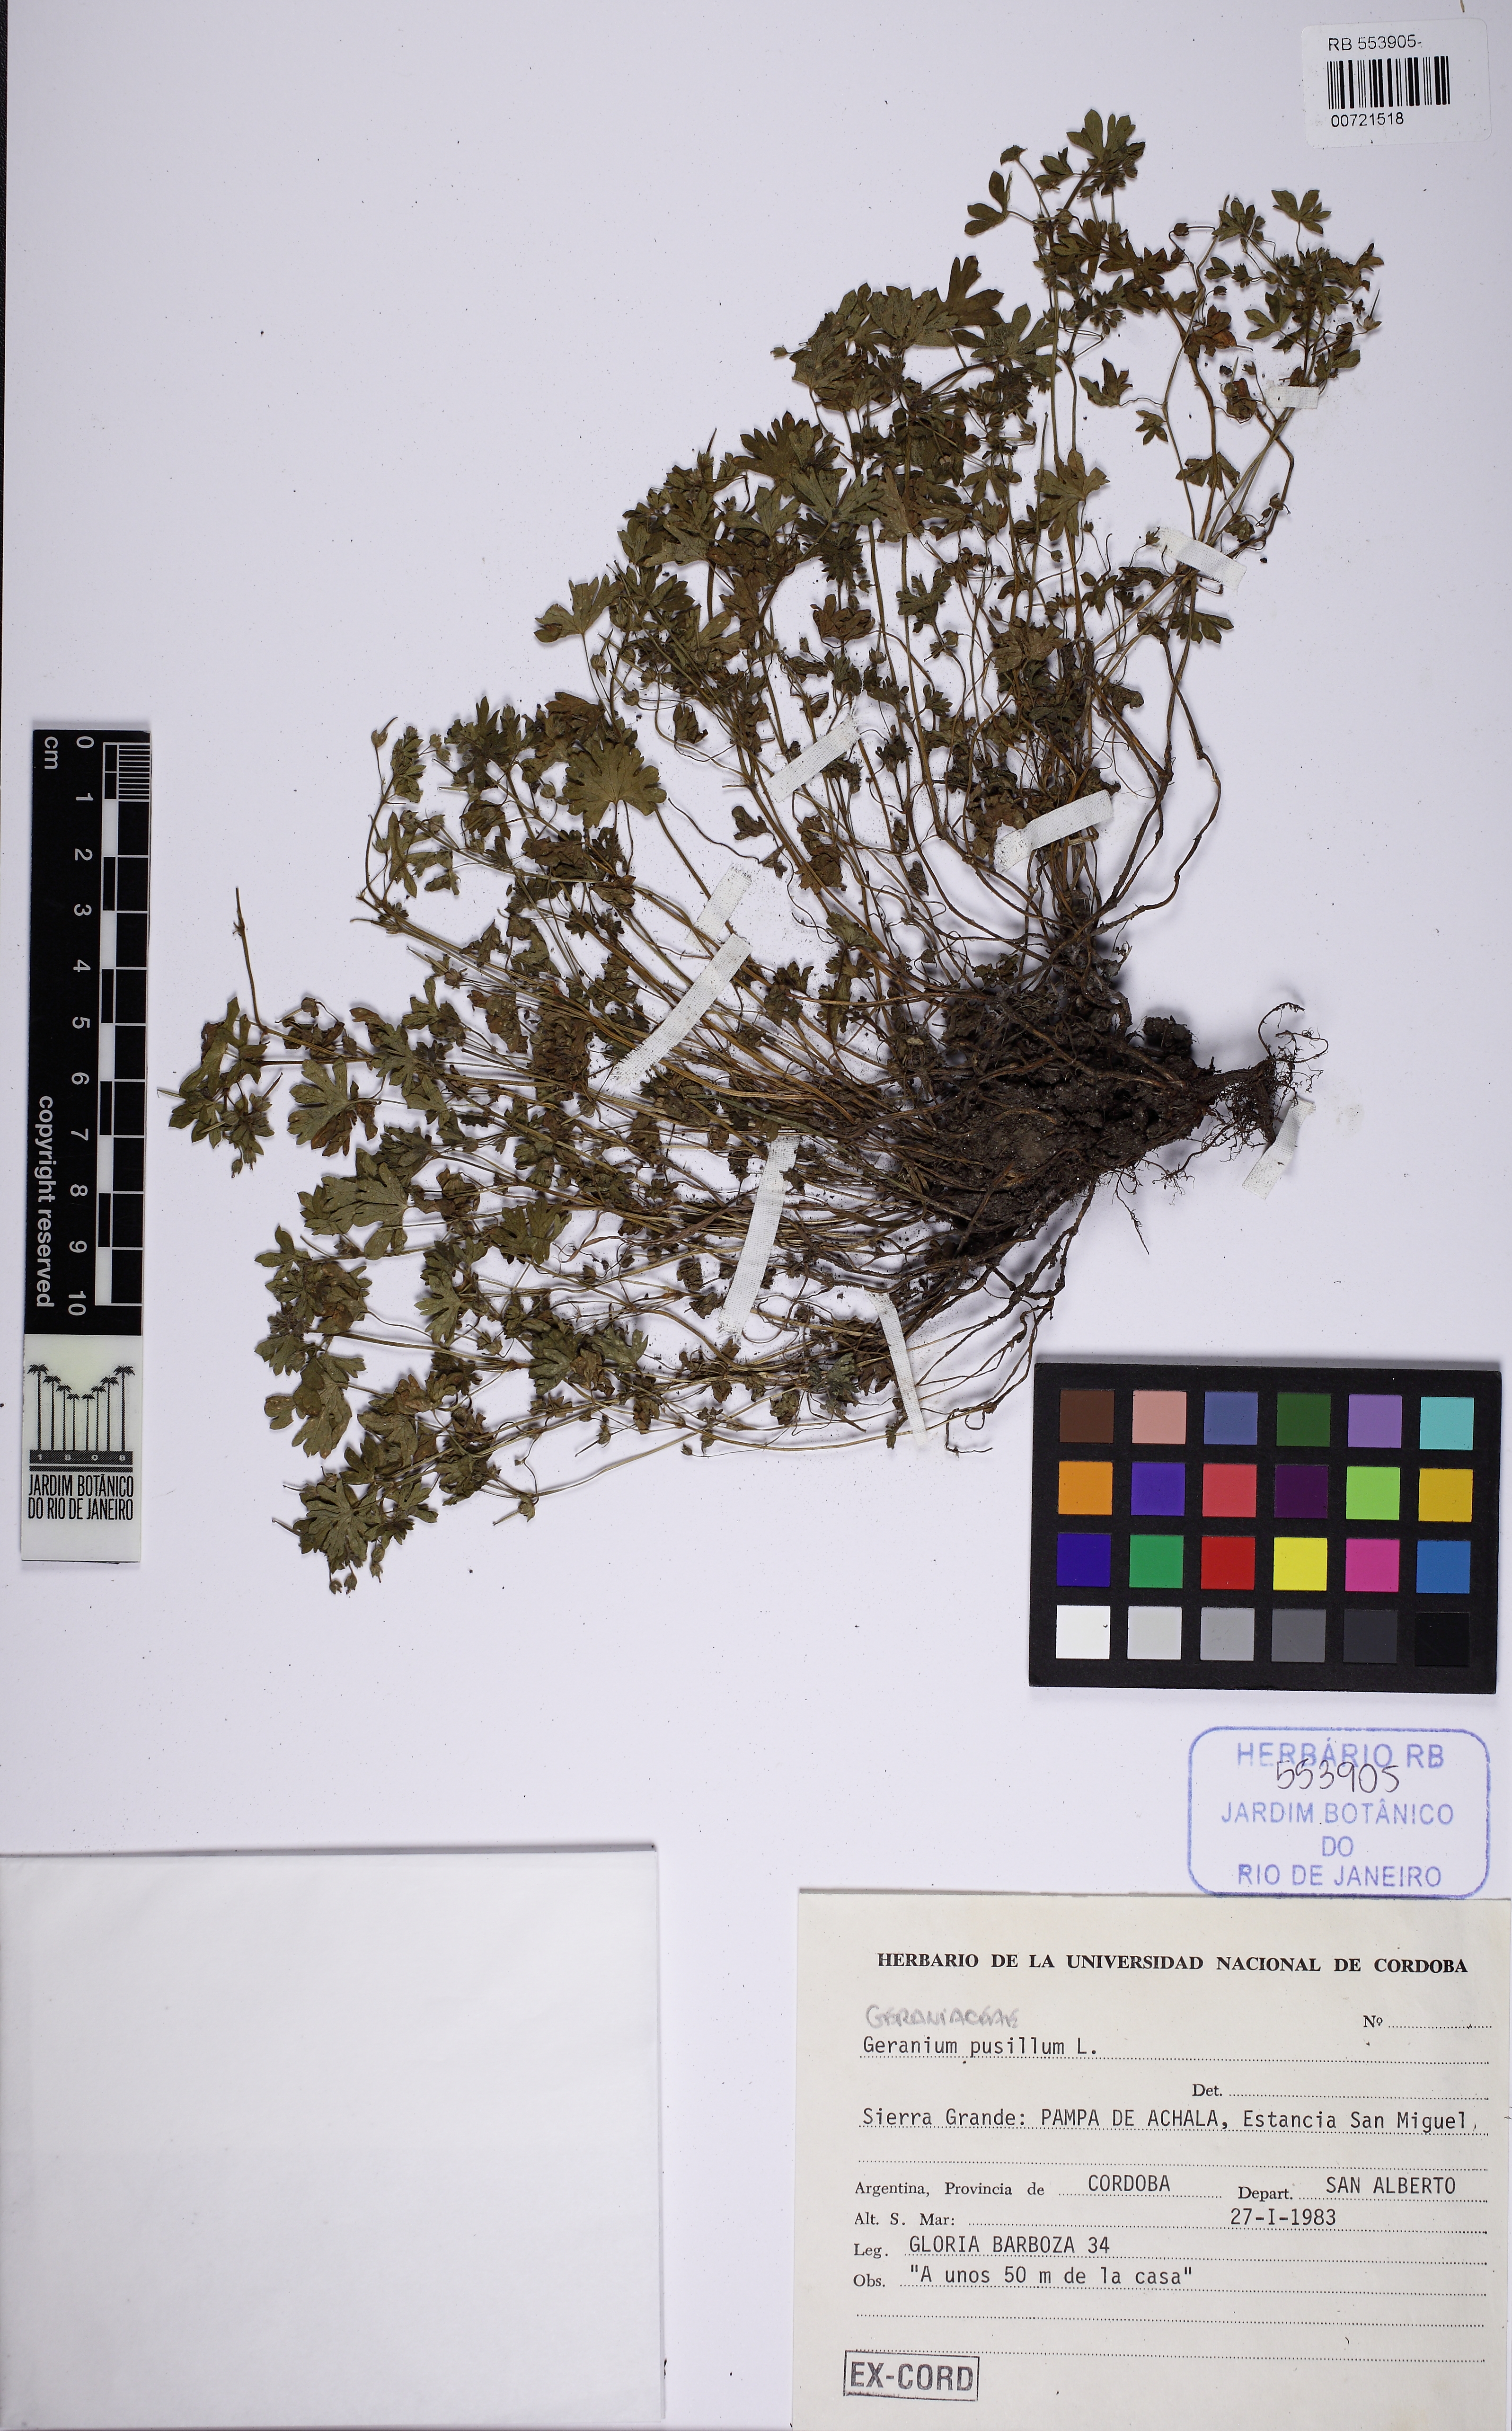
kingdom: Plantae
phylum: Tracheophyta
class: Magnoliopsida
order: Geraniales
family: Geraniaceae
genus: Geranium
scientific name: Geranium pusillum
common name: Small geranium
